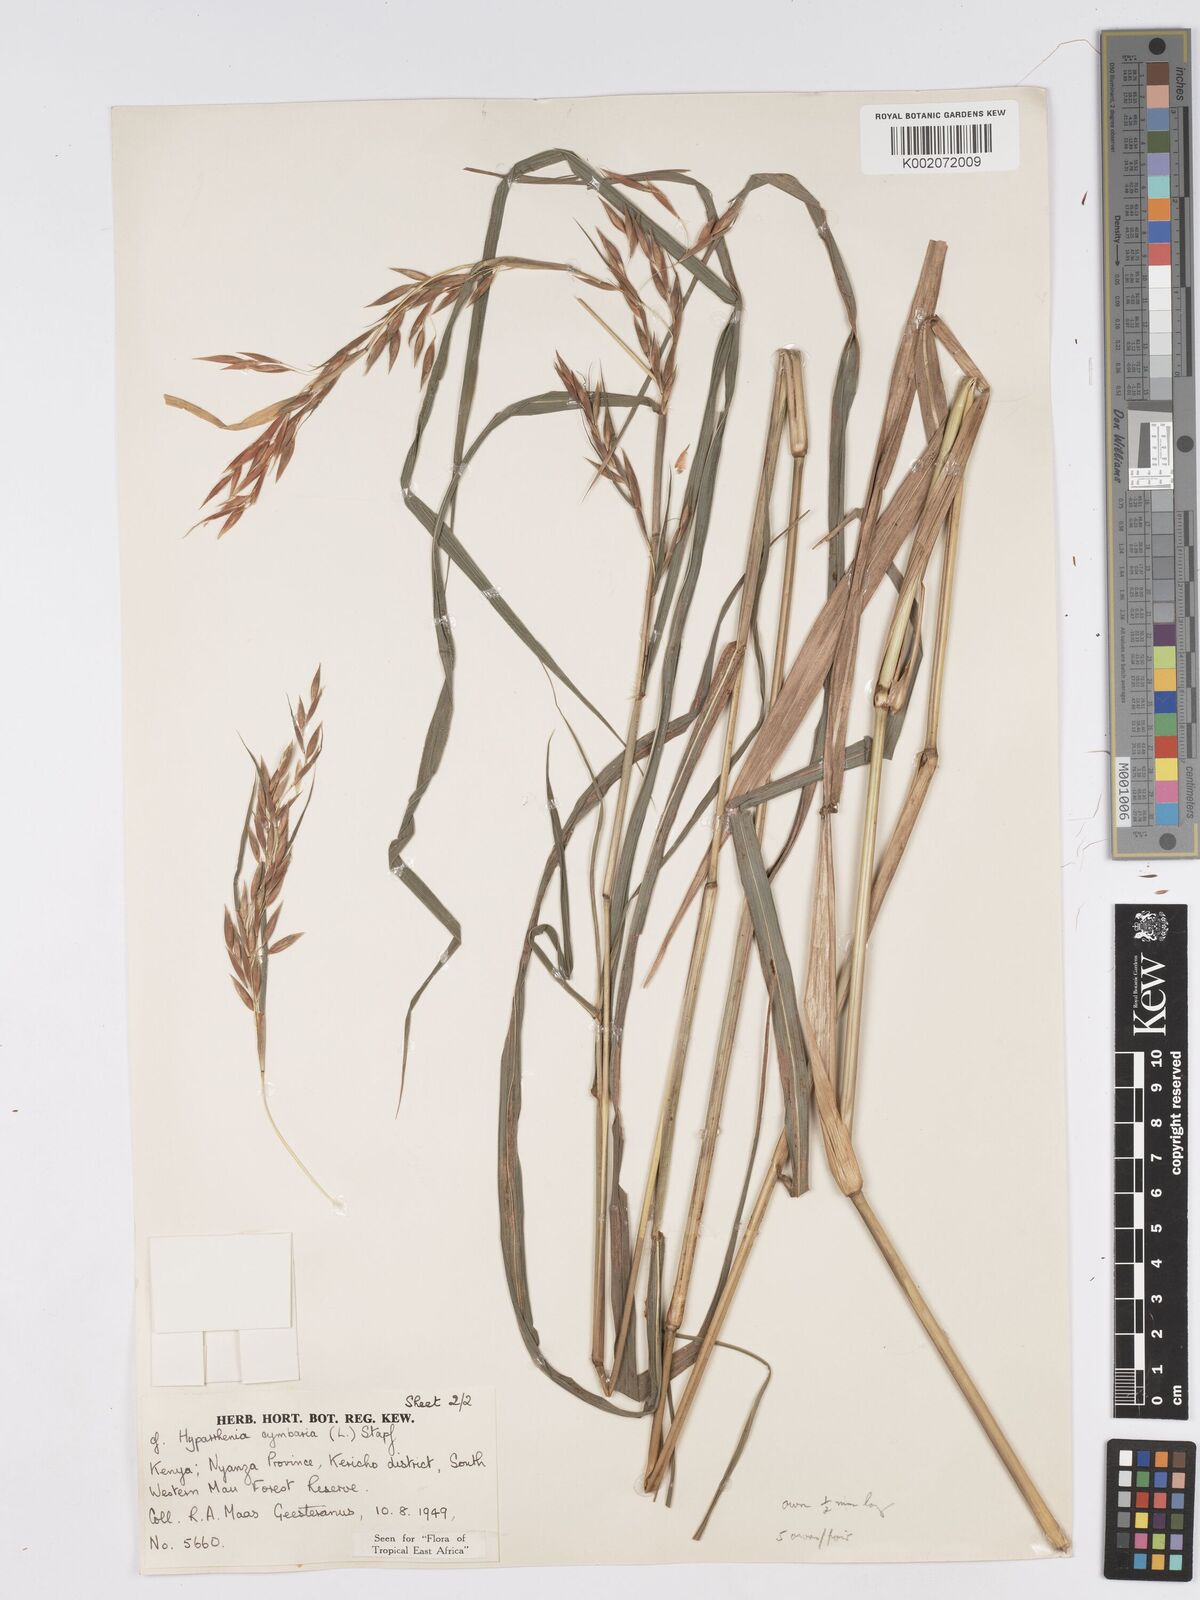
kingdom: Plantae
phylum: Tracheophyta
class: Liliopsida
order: Poales
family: Poaceae
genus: Hyparrhenia
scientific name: Hyparrhenia cymbaria
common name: Boat thatching grass
